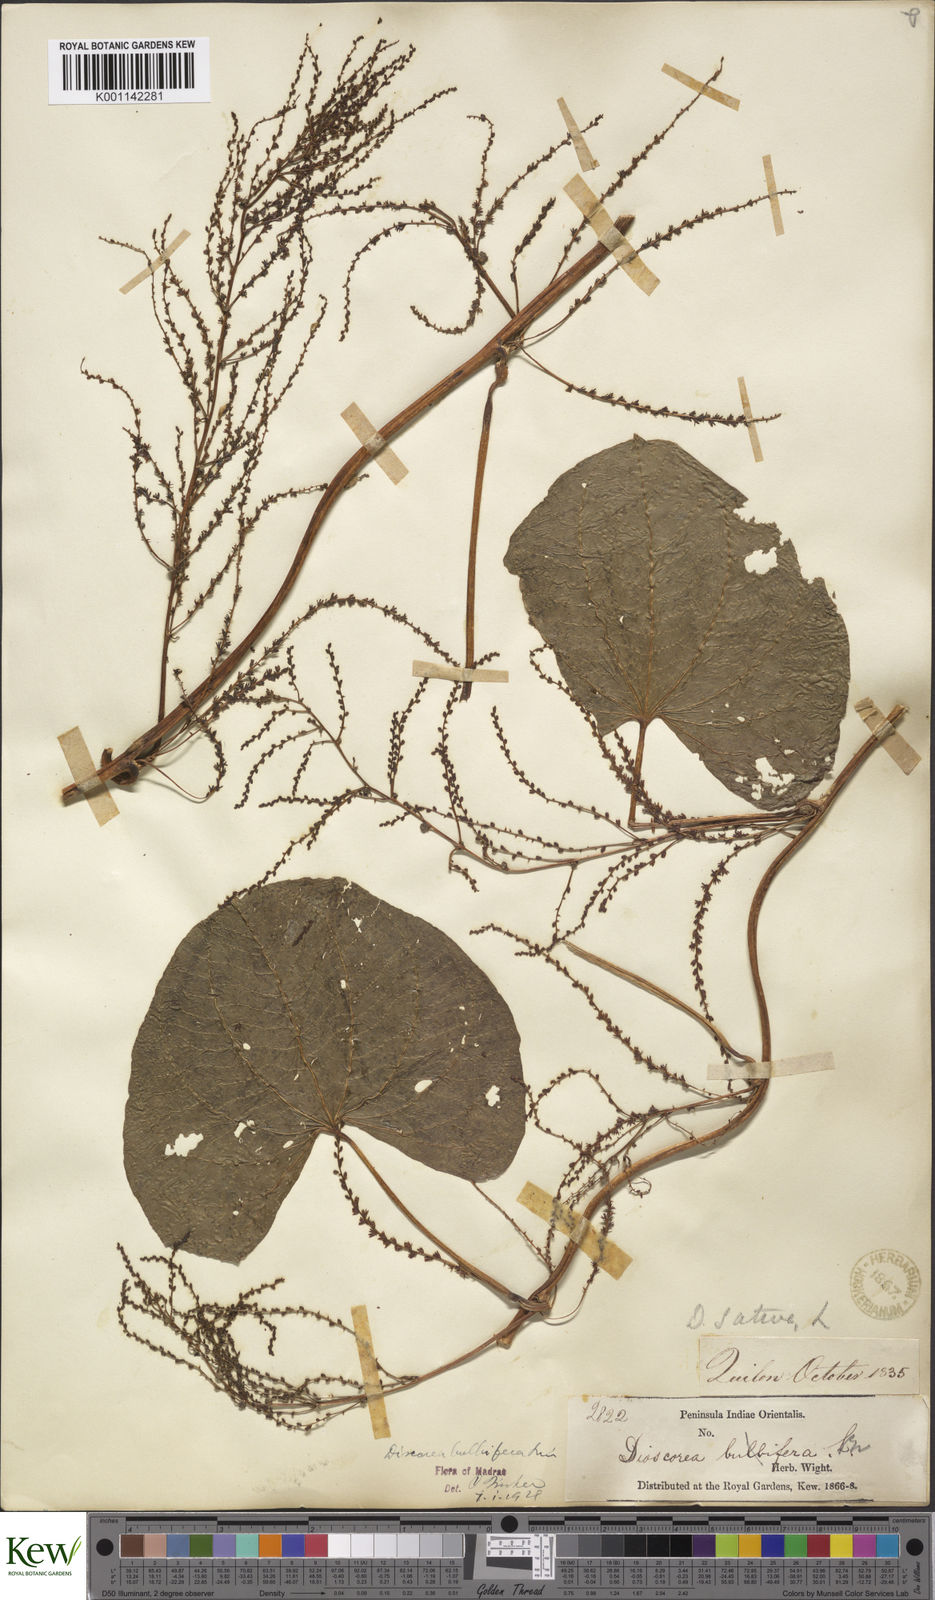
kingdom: Plantae
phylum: Tracheophyta
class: Liliopsida
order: Dioscoreales
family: Dioscoreaceae
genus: Dioscorea
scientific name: Dioscorea bulbifera
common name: Air yam
